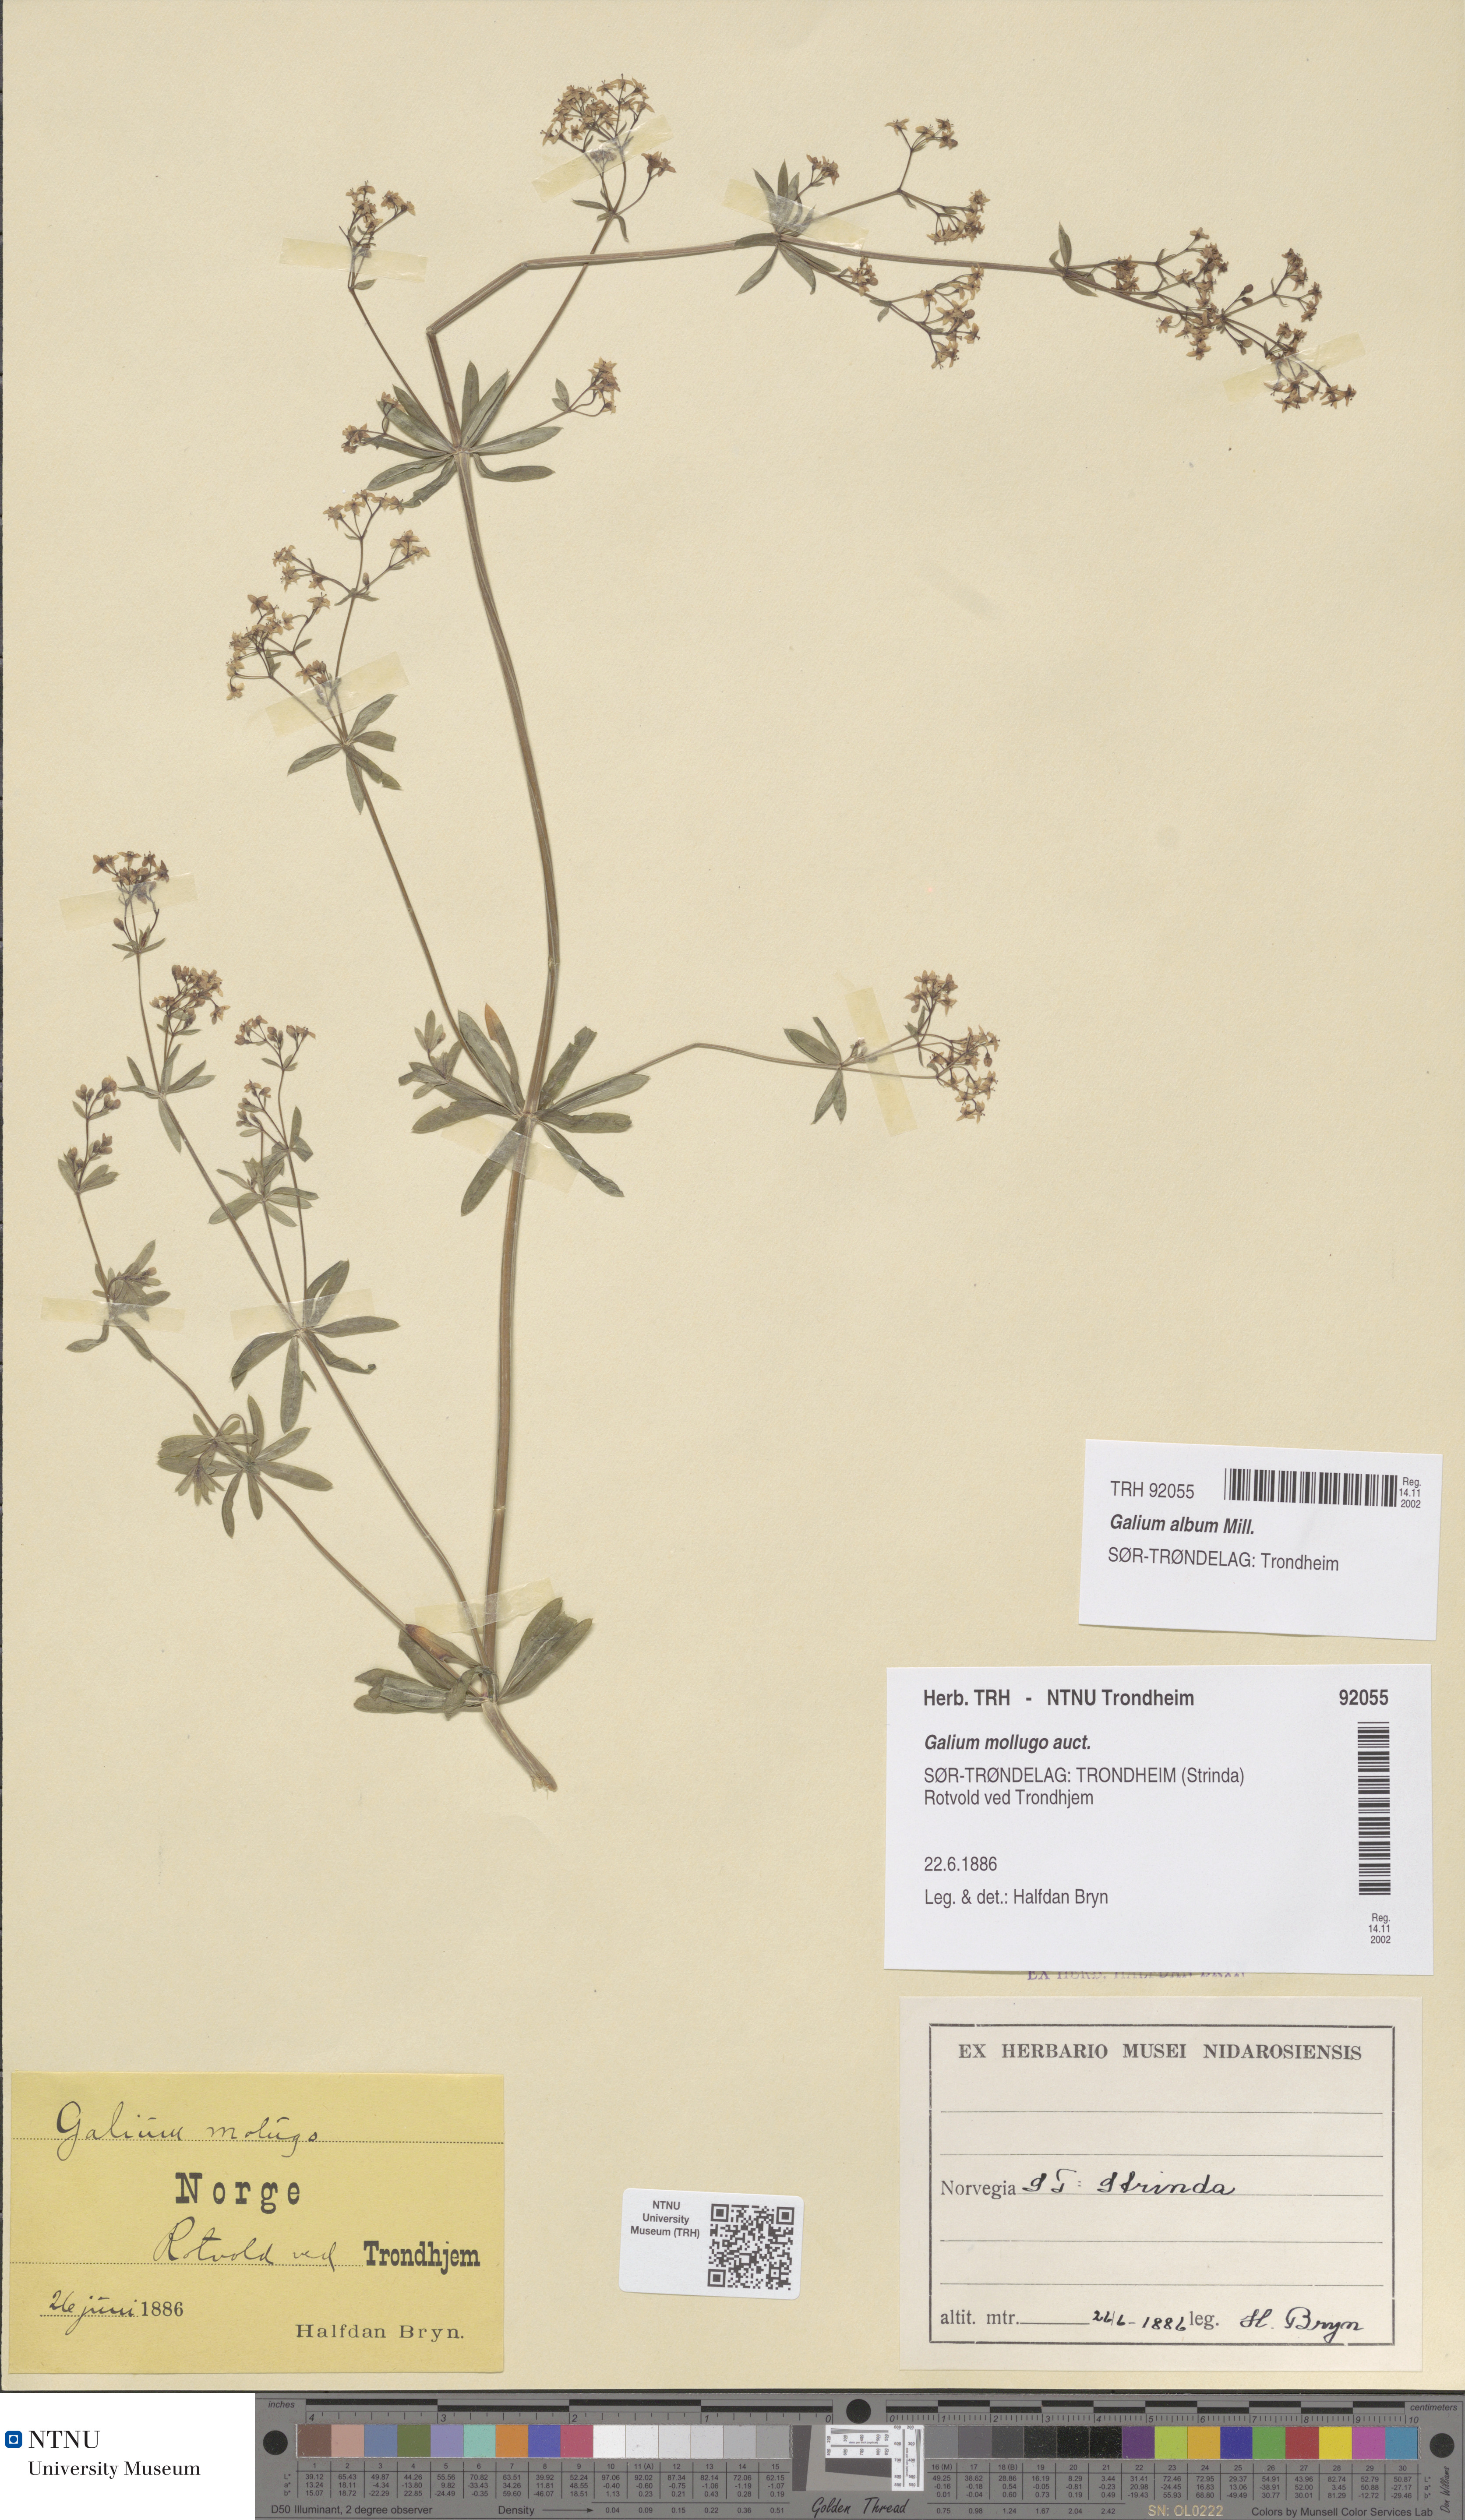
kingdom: Plantae
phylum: Tracheophyta
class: Magnoliopsida
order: Gentianales
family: Rubiaceae
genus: Galium
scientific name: Galium album
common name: White bedstraw
